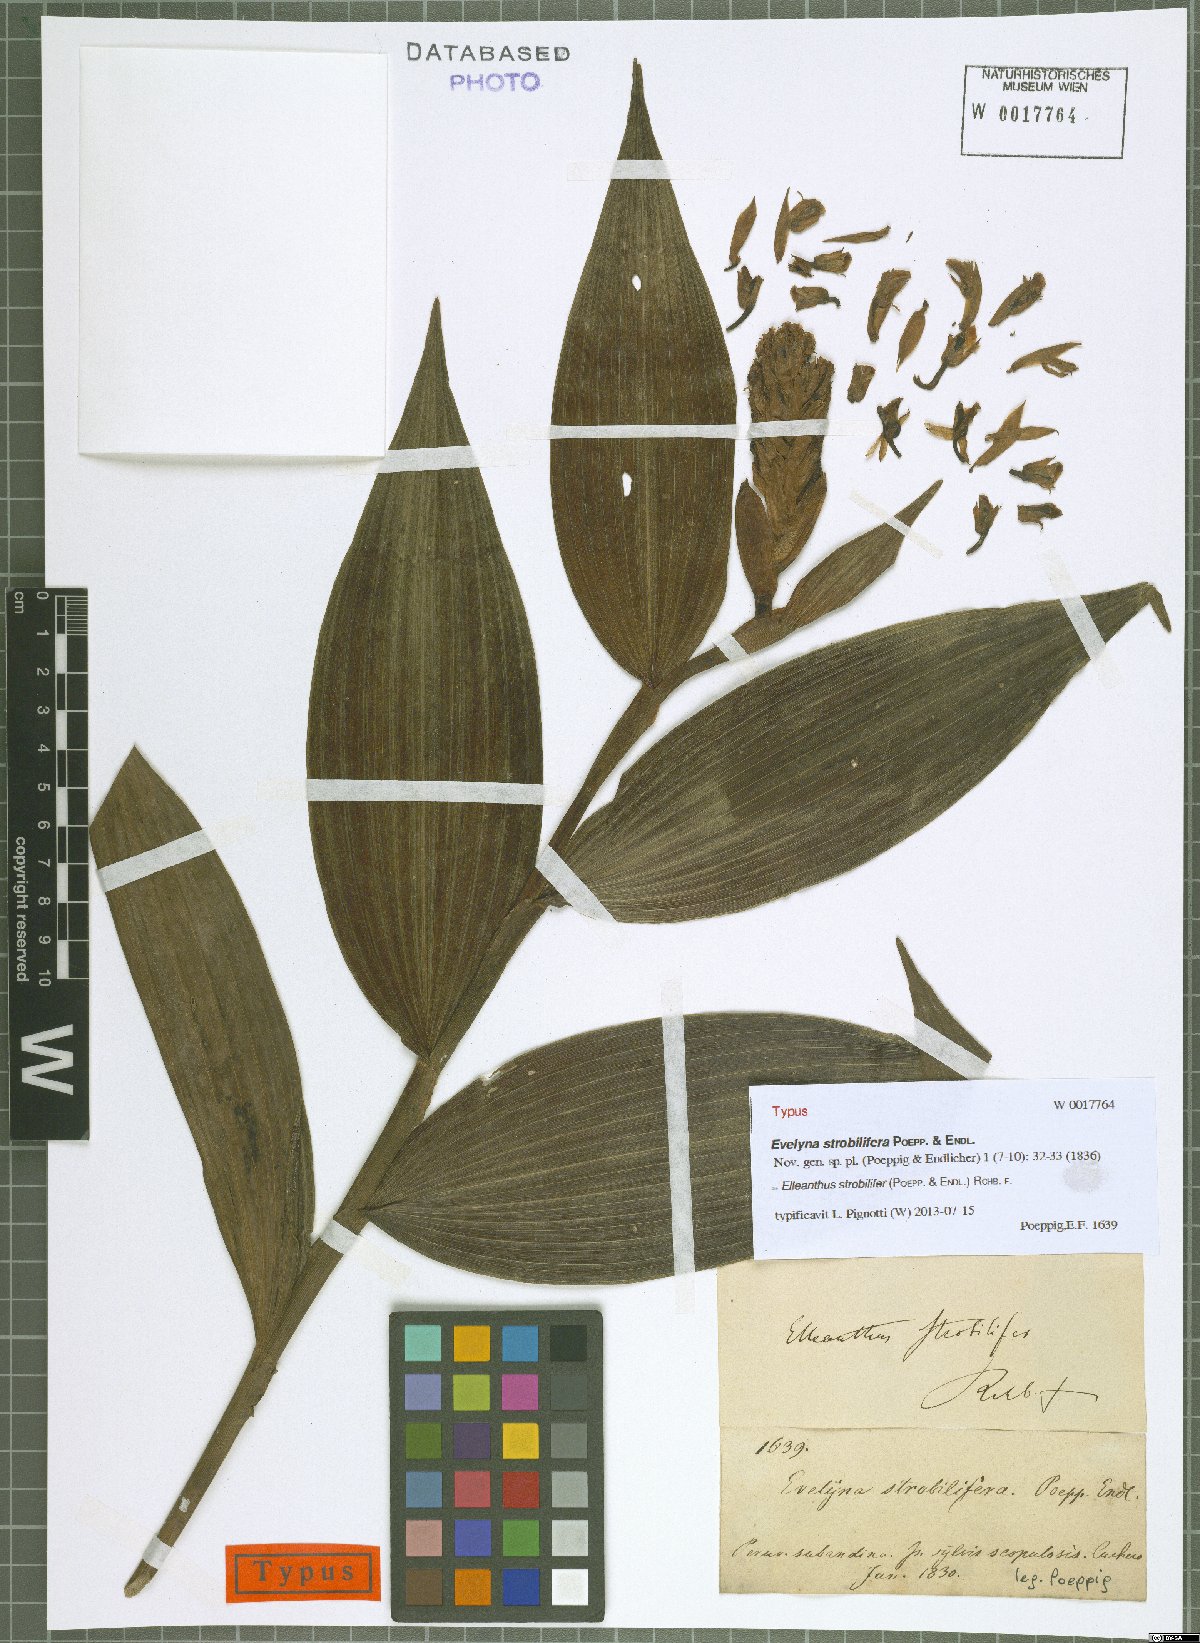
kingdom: Plantae
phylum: Tracheophyta
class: Liliopsida
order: Asparagales
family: Orchidaceae
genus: Elleanthus
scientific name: Elleanthus strobilifer
